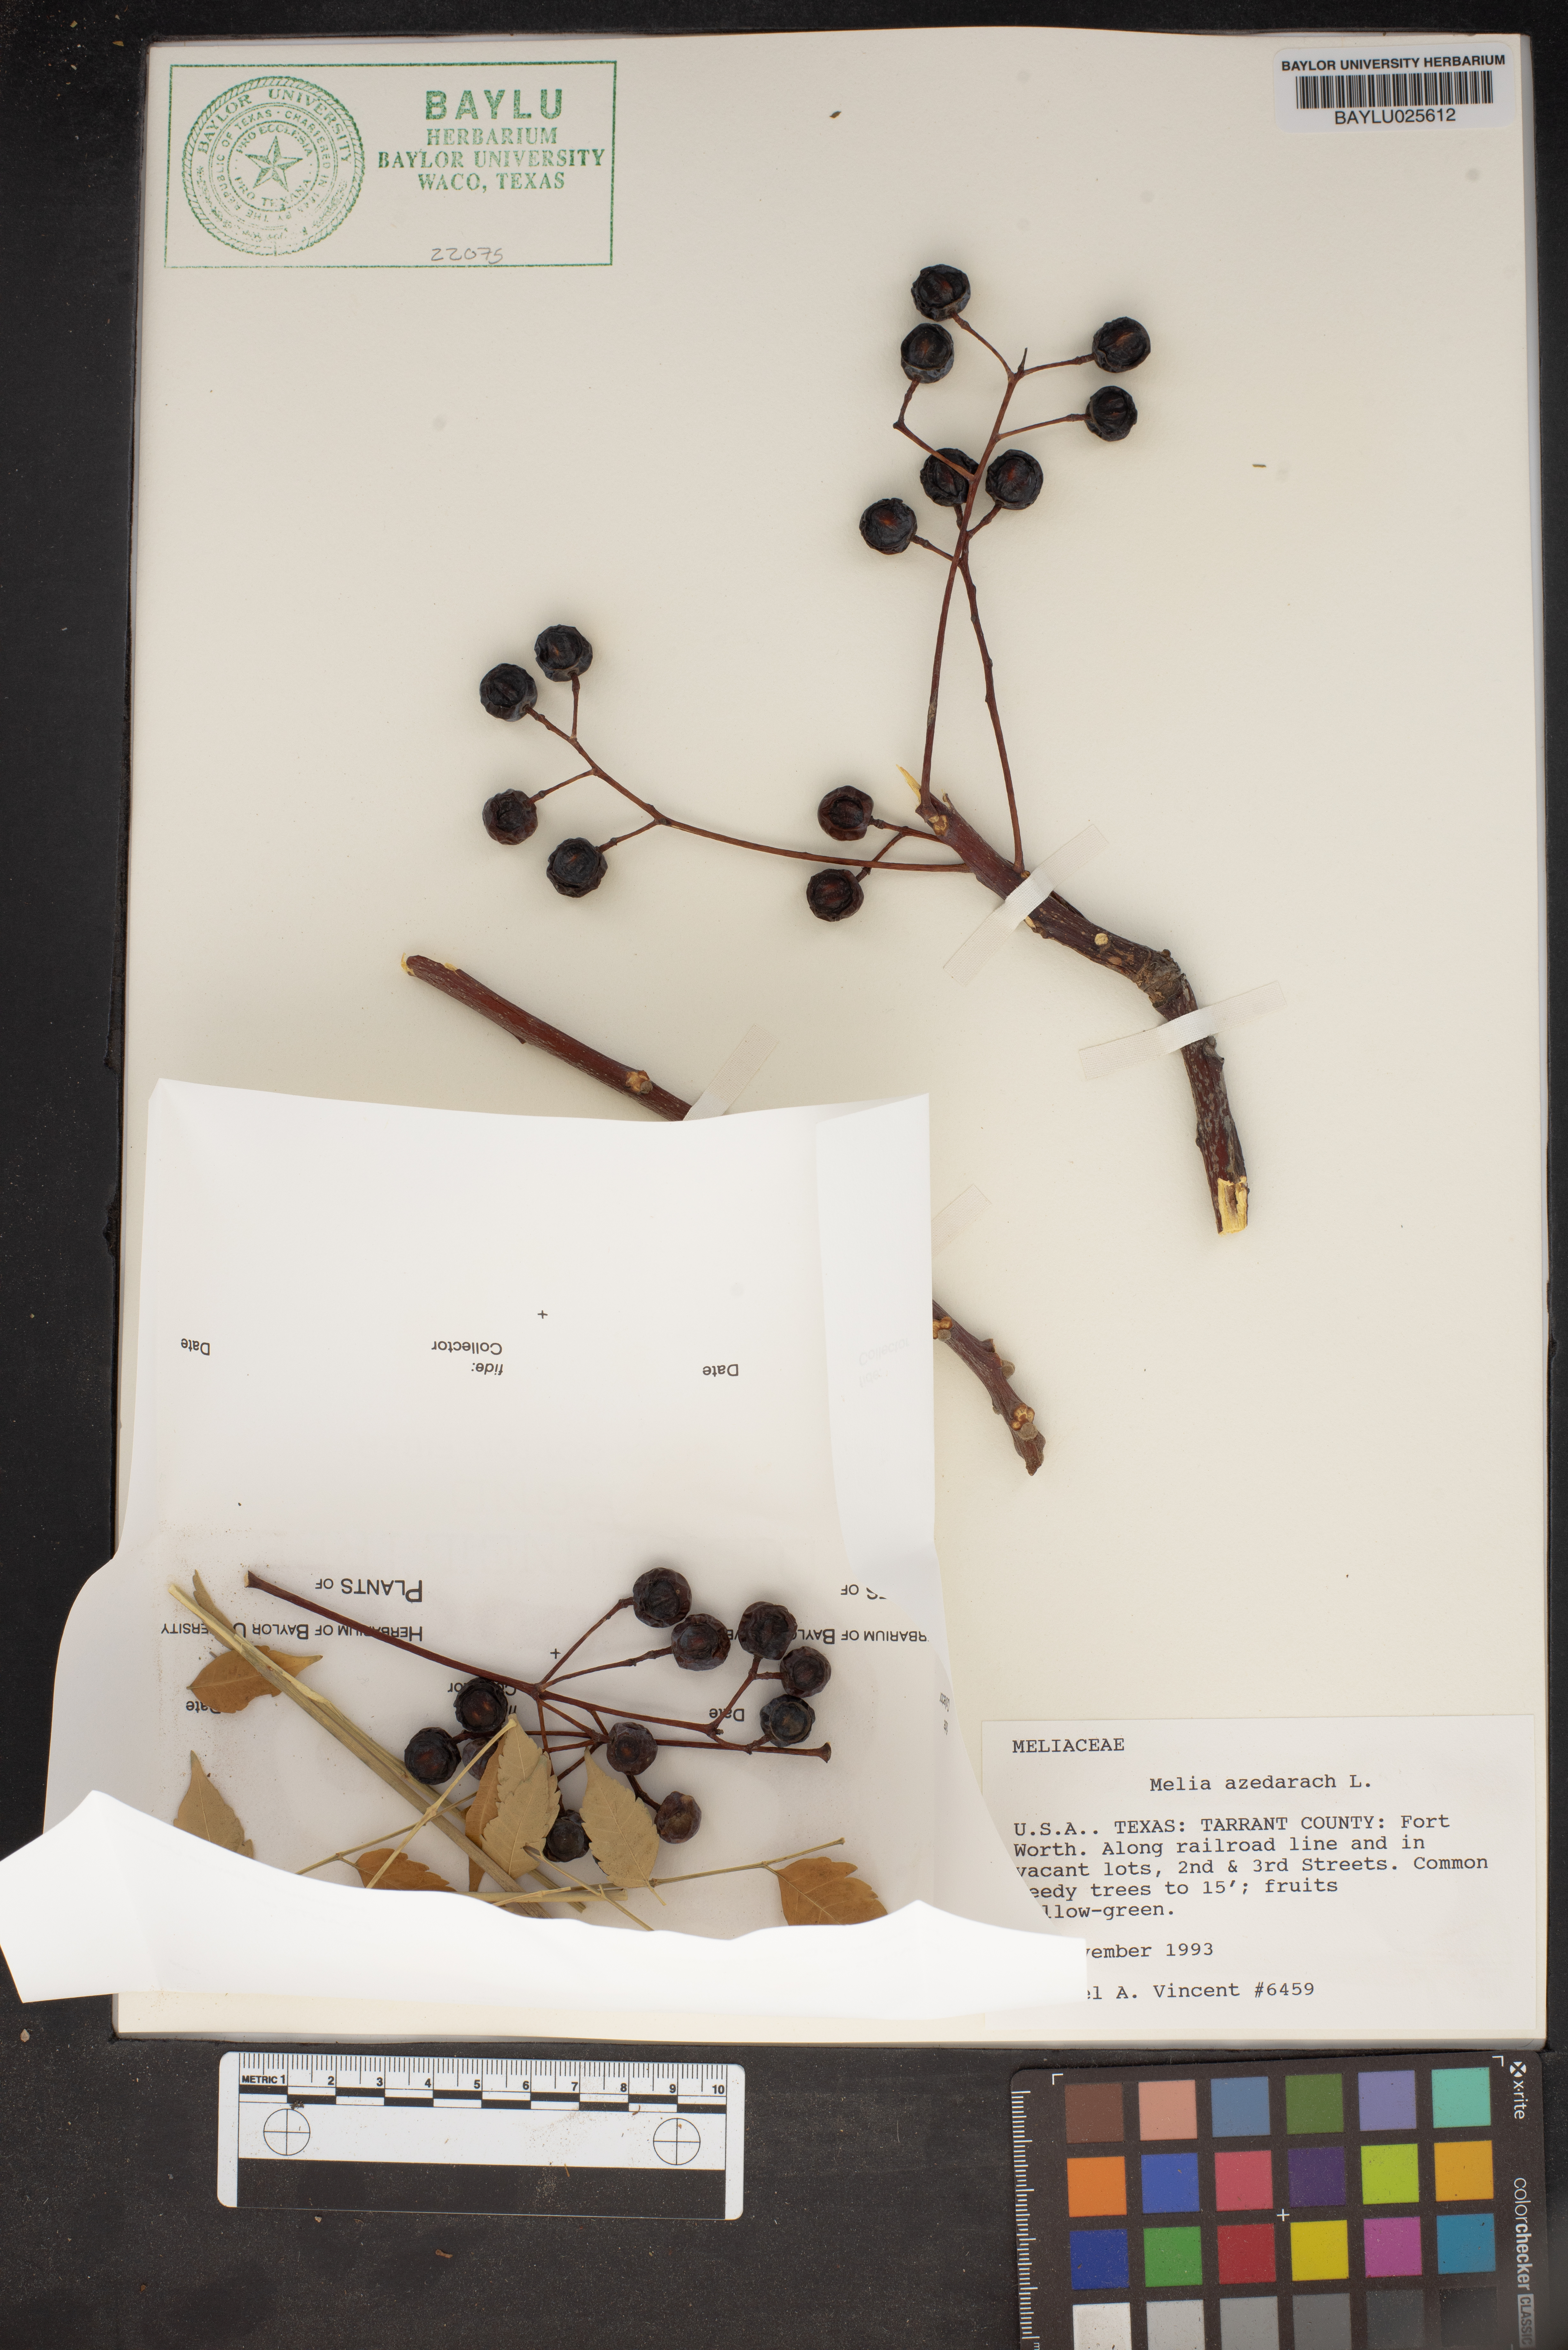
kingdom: Plantae
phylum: Tracheophyta
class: Magnoliopsida
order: Sapindales
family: Meliaceae
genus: Melia
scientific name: Melia azedarach
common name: Chinaberrytree
